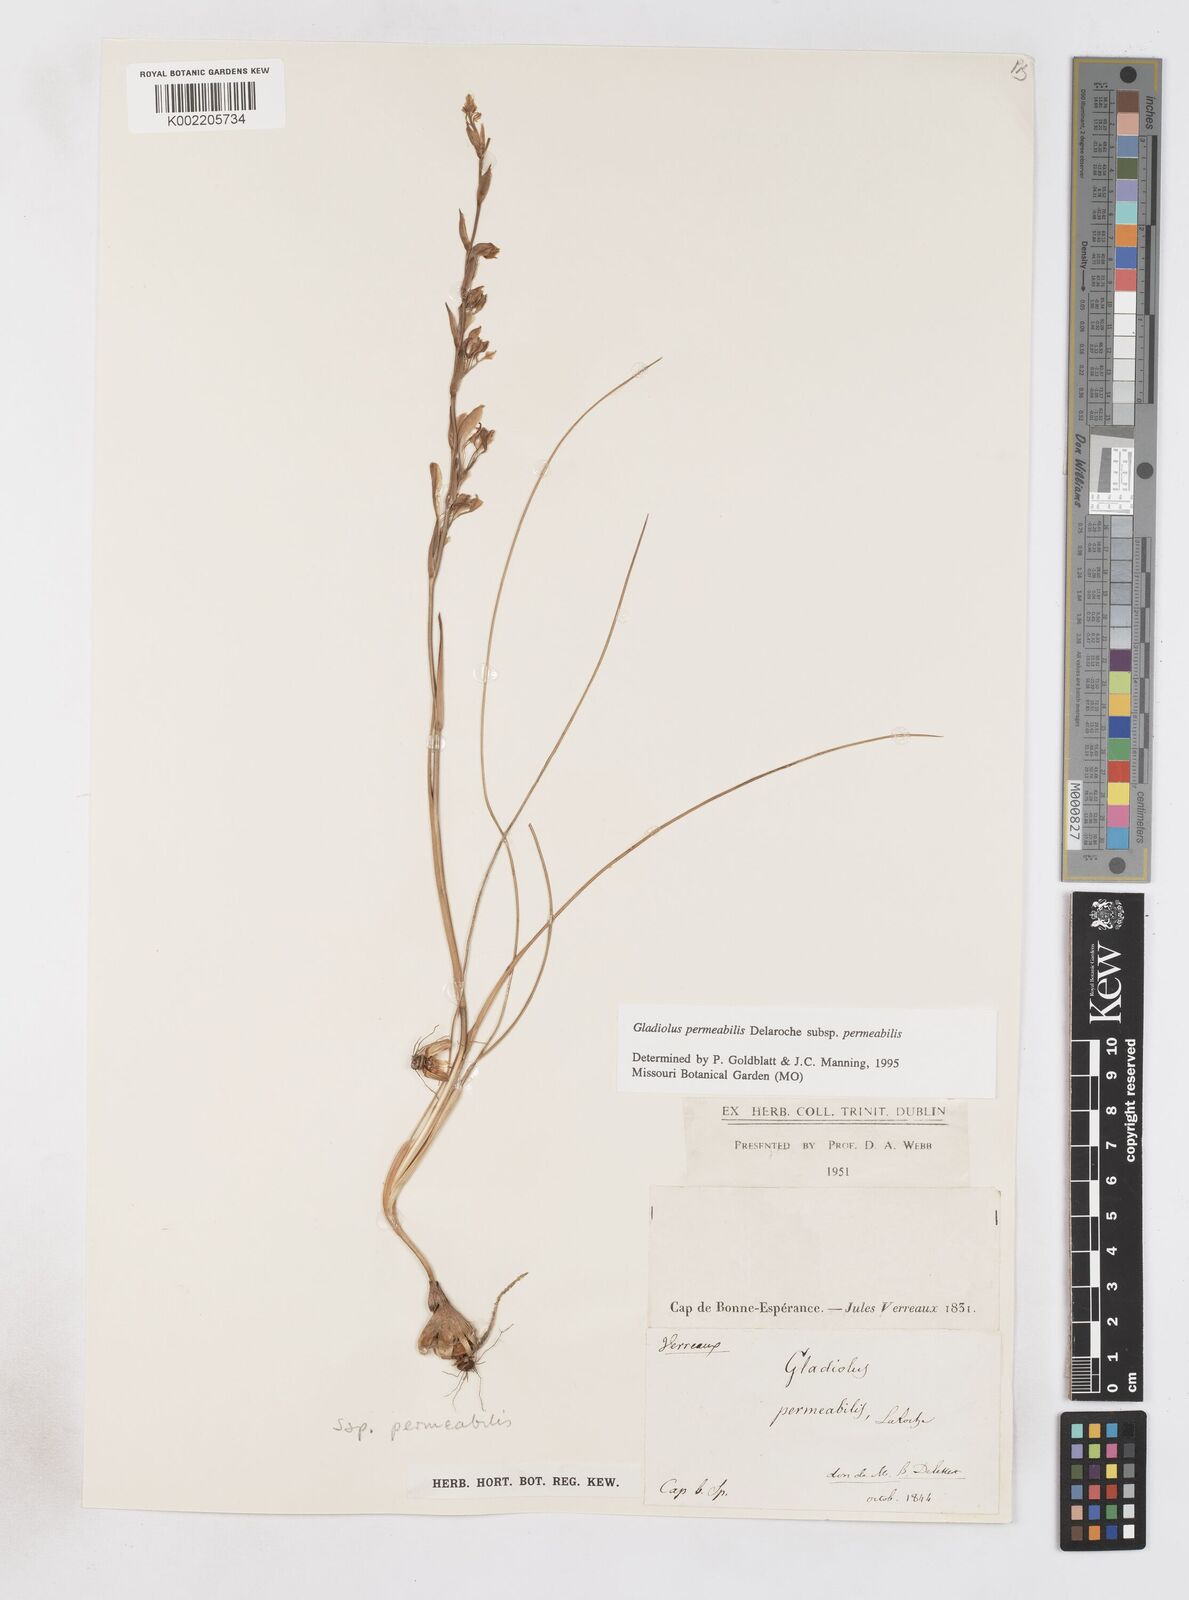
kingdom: Plantae
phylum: Tracheophyta
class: Liliopsida
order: Asparagales
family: Iridaceae
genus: Gladiolus
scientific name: Gladiolus permeabilis
